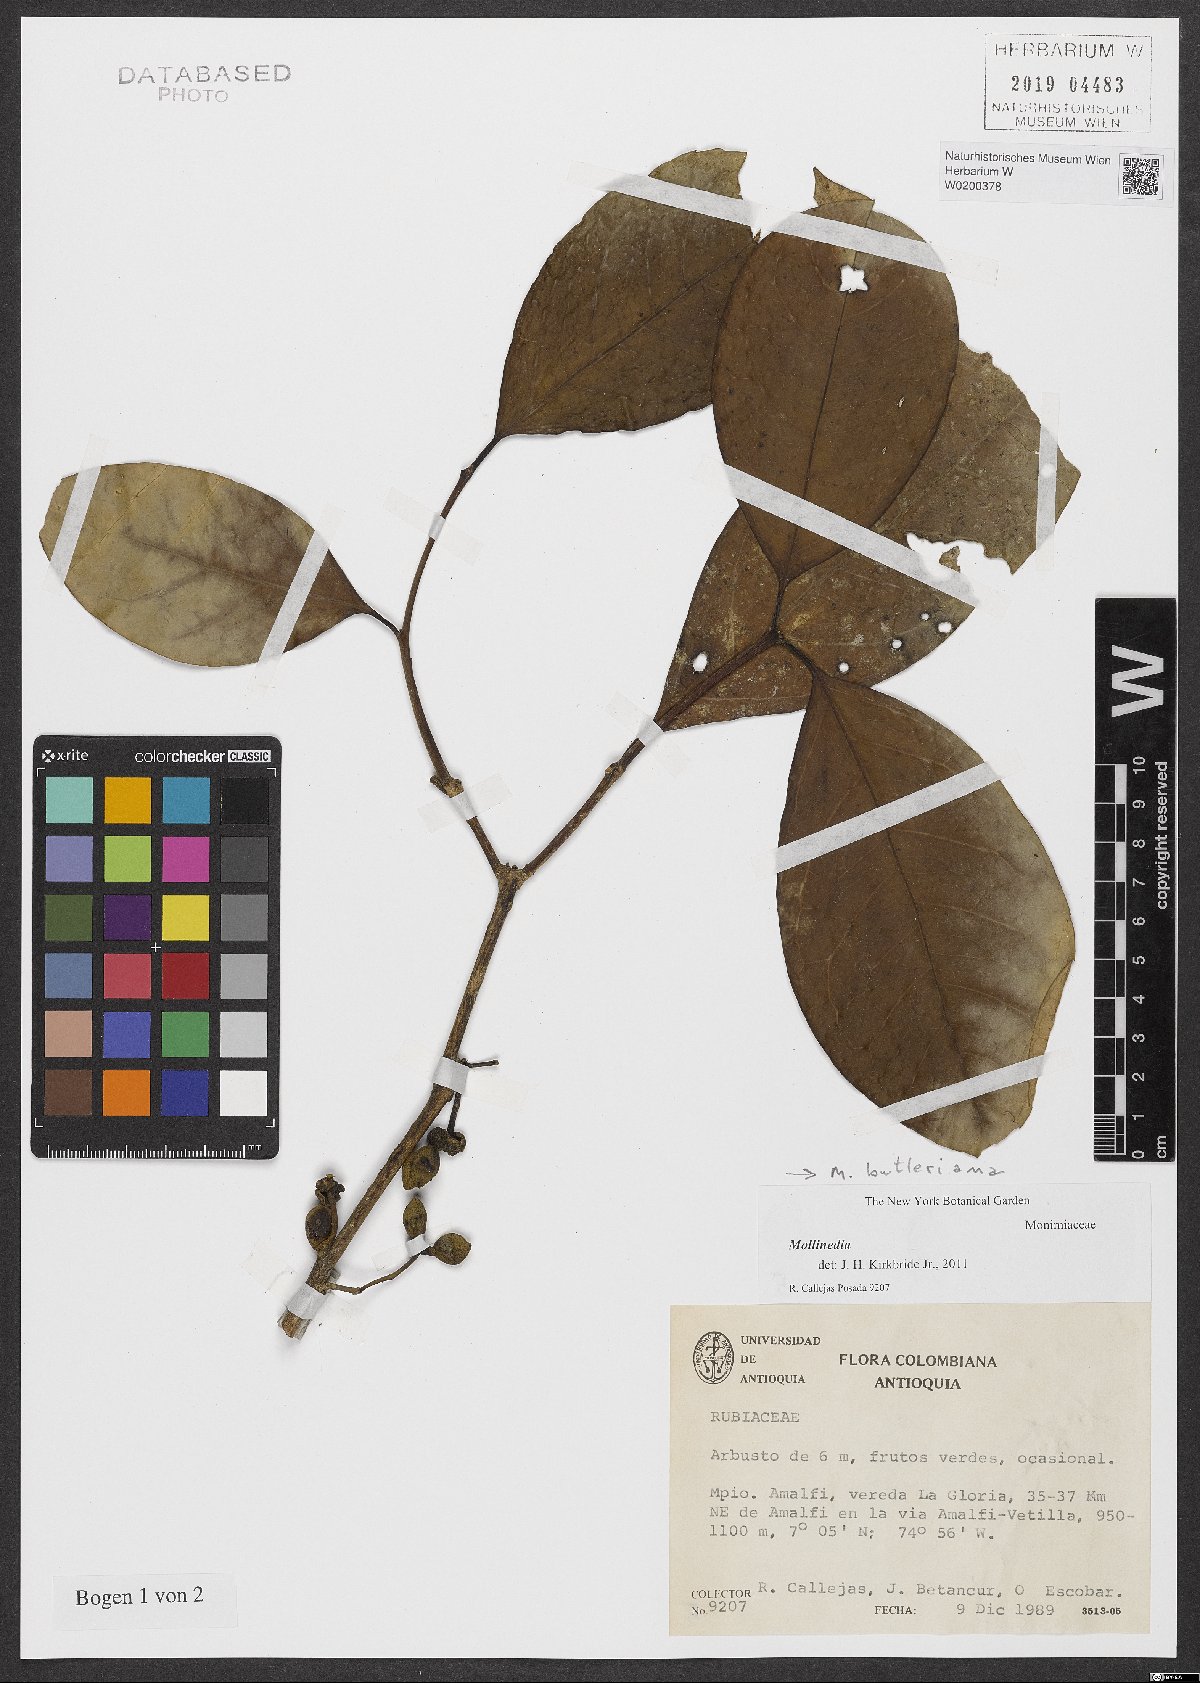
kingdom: Plantae
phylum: Tracheophyta
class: Magnoliopsida
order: Laurales
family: Monimiaceae
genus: Mollinedia
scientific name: Mollinedia
